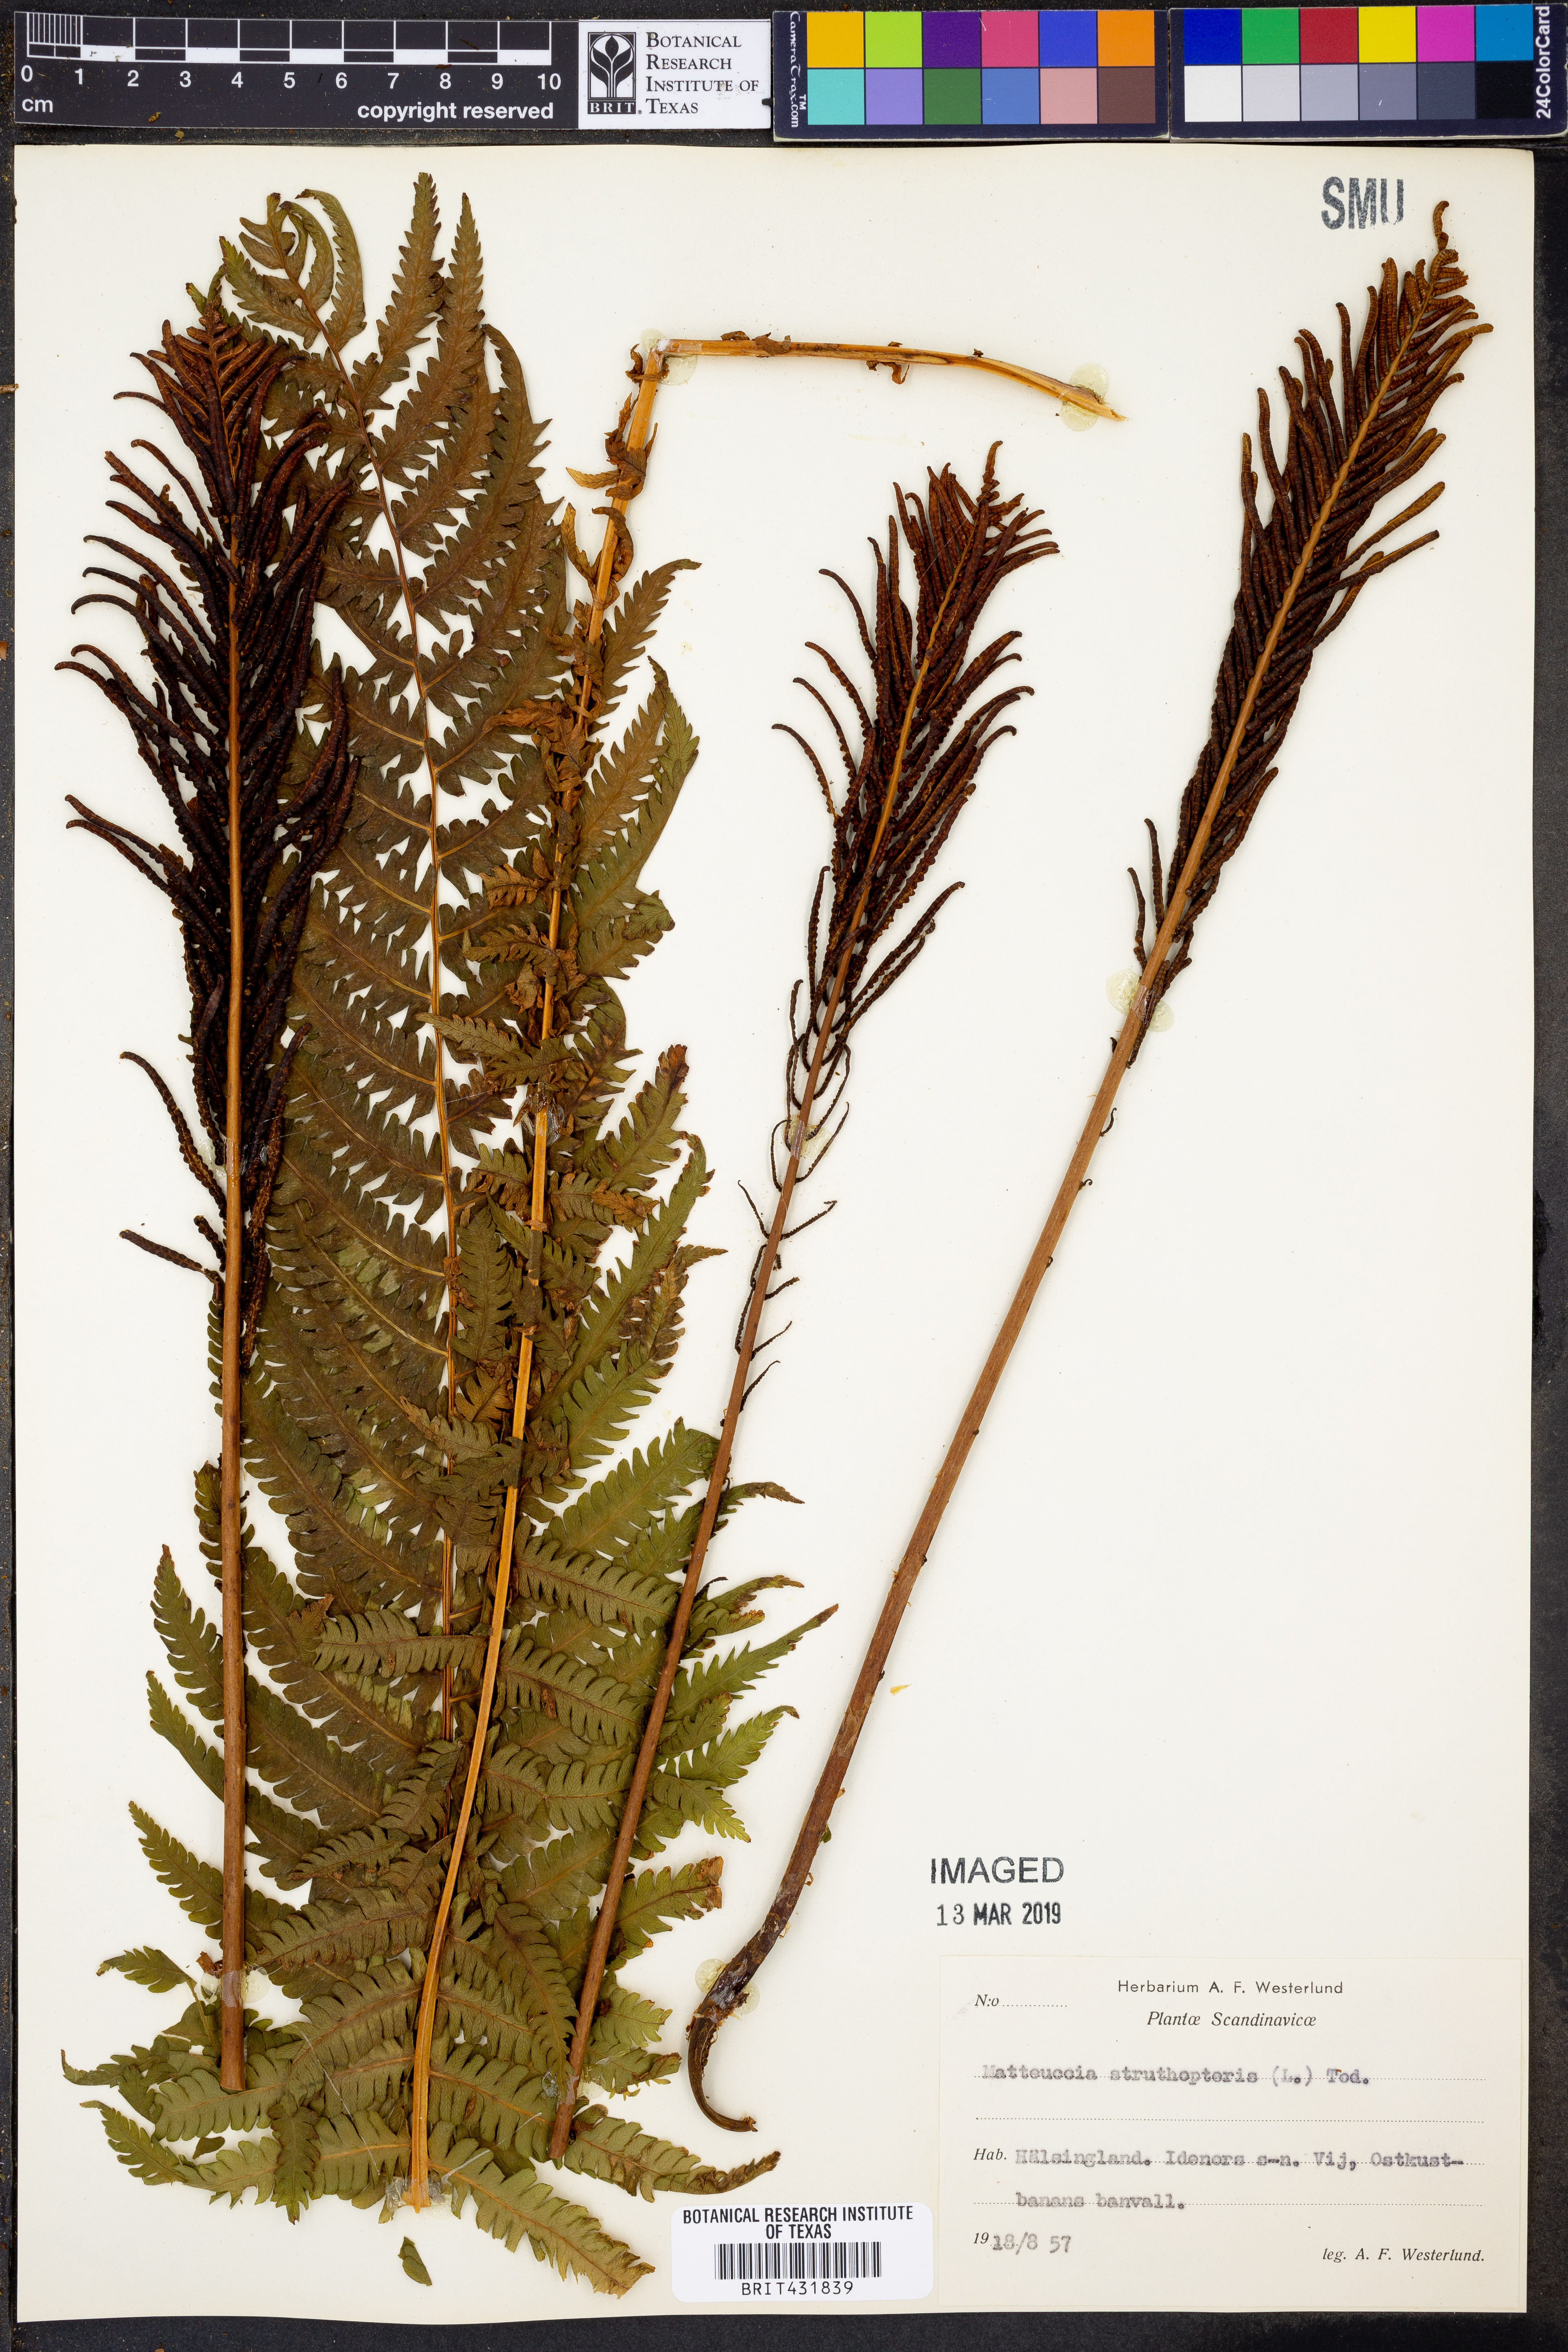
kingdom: Plantae
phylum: Tracheophyta
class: Polypodiopsida
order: Polypodiales
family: Onocleaceae
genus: Matteuccia
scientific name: Matteuccia struthiopteris
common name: Ostrich fern
